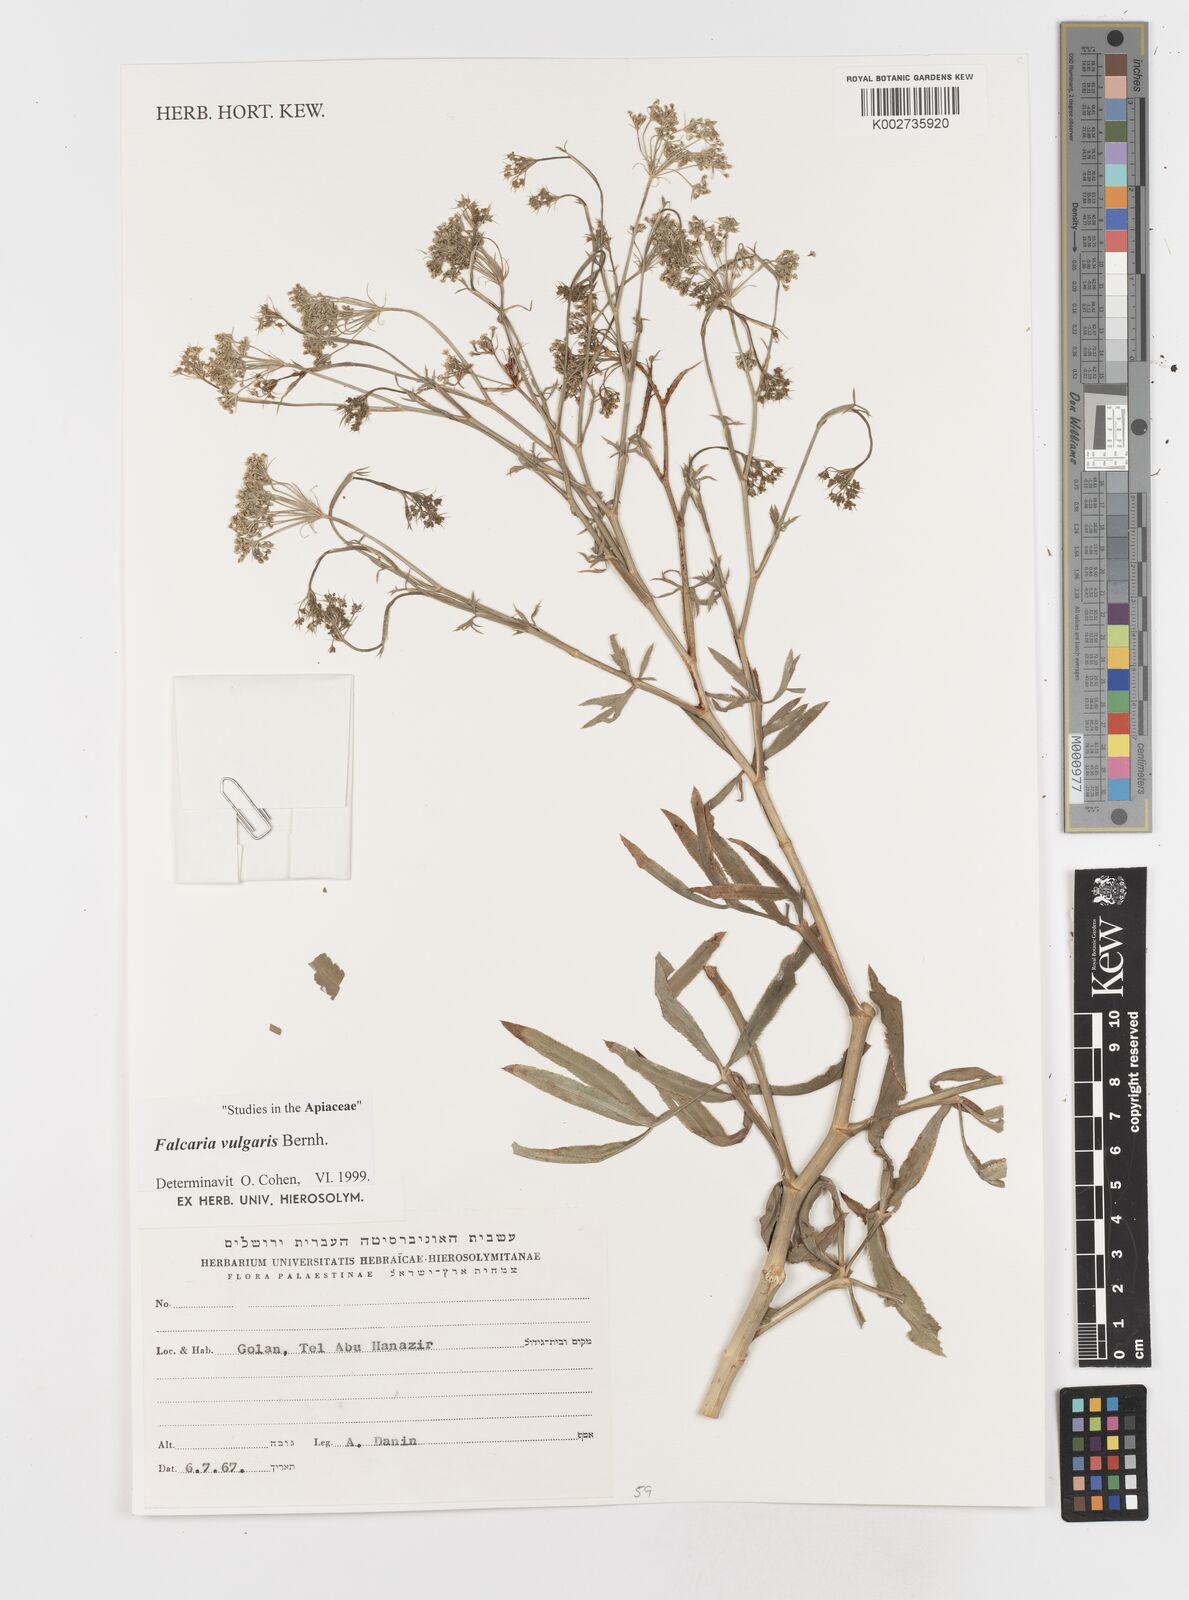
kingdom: Plantae
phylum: Tracheophyta
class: Magnoliopsida
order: Apiales
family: Apiaceae
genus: Falcaria
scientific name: Falcaria vulgaris
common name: Longleaf
